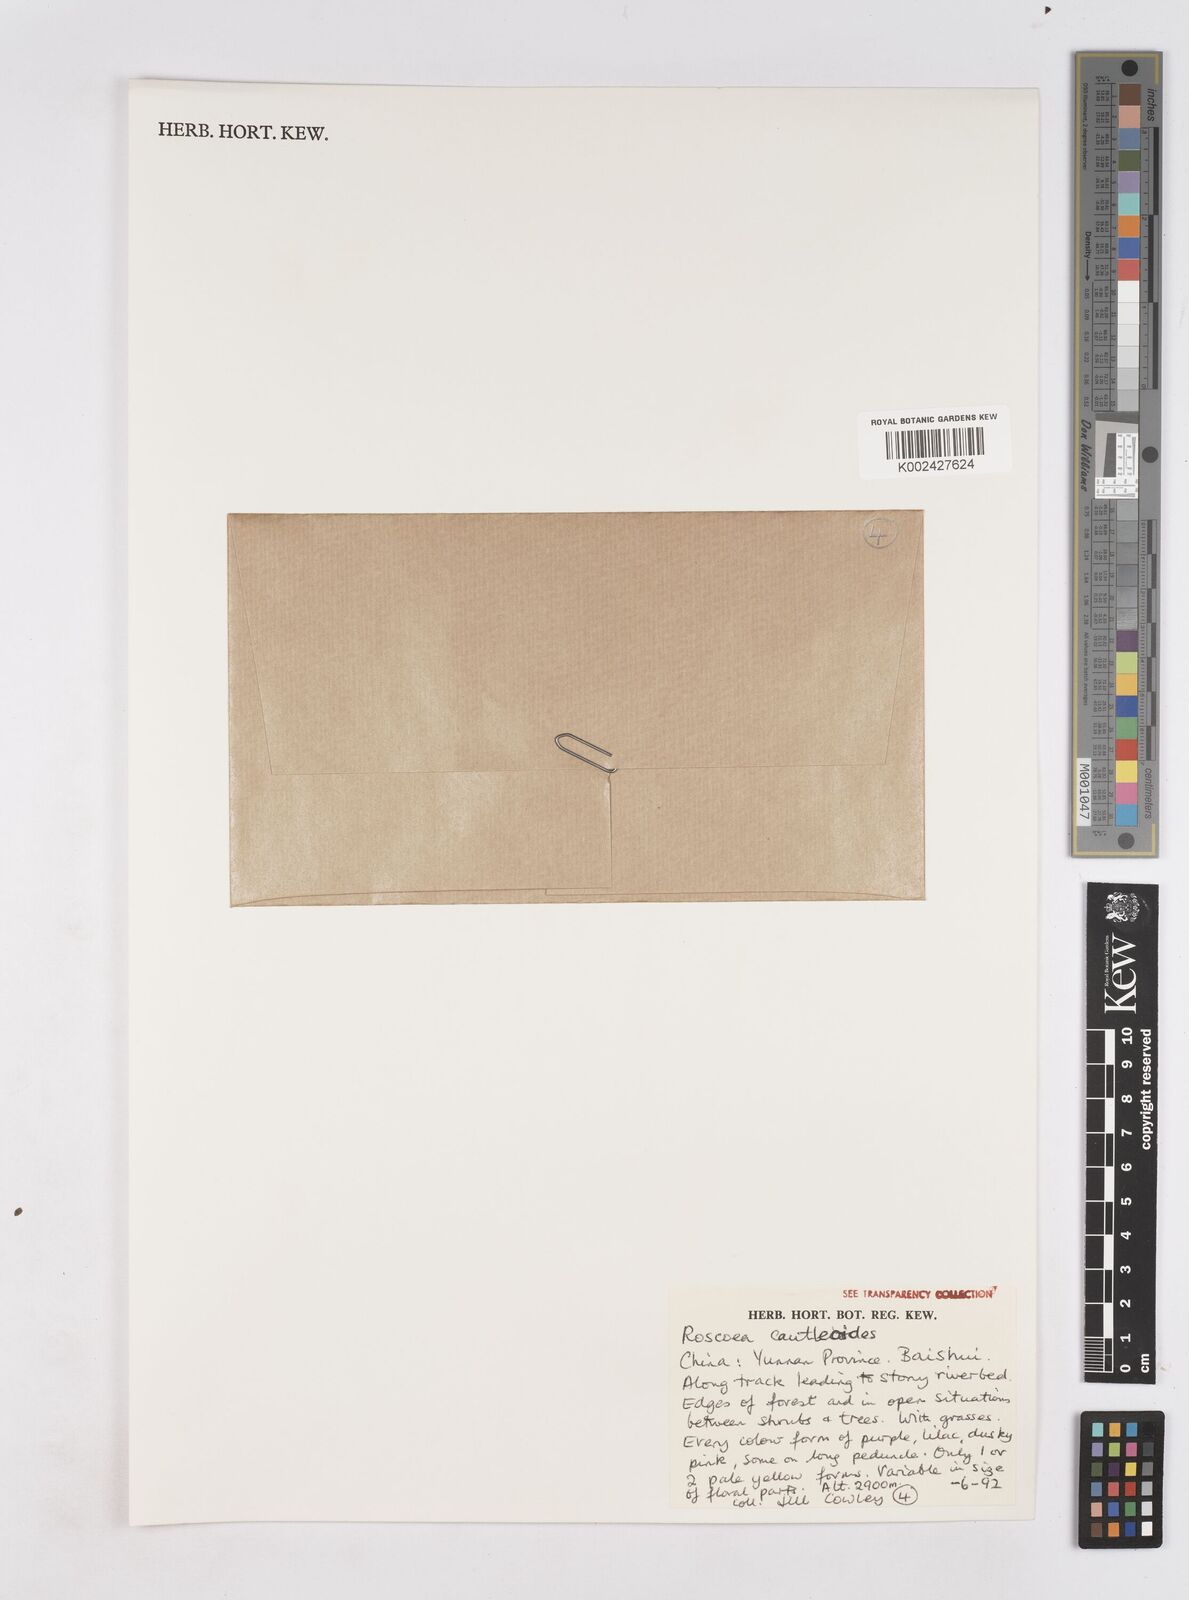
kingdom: Plantae
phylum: Tracheophyta
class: Liliopsida
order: Zingiberales
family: Zingiberaceae
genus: Roscoea
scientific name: Roscoea cautleyoides
